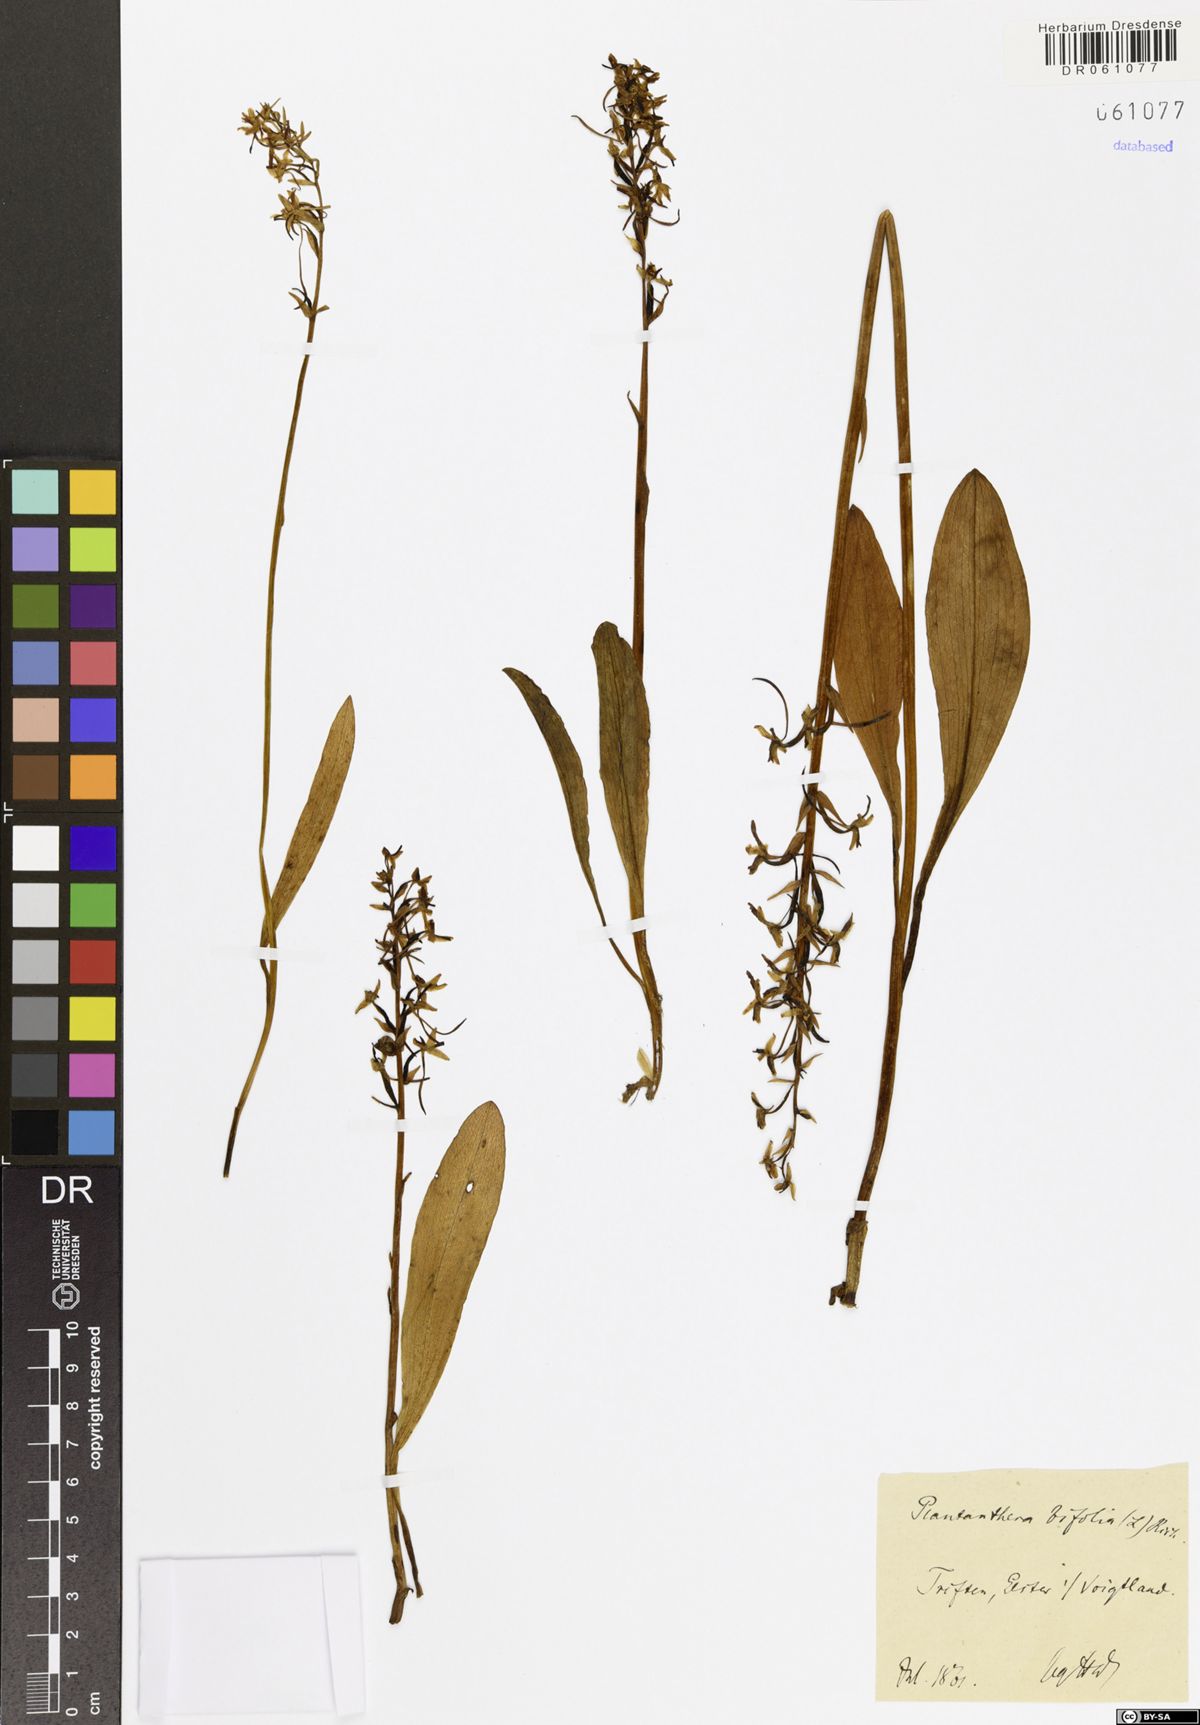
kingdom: Plantae
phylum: Tracheophyta
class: Liliopsida
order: Asparagales
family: Orchidaceae
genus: Platanthera
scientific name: Platanthera bifolia
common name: Lesser butterfly-orchid
